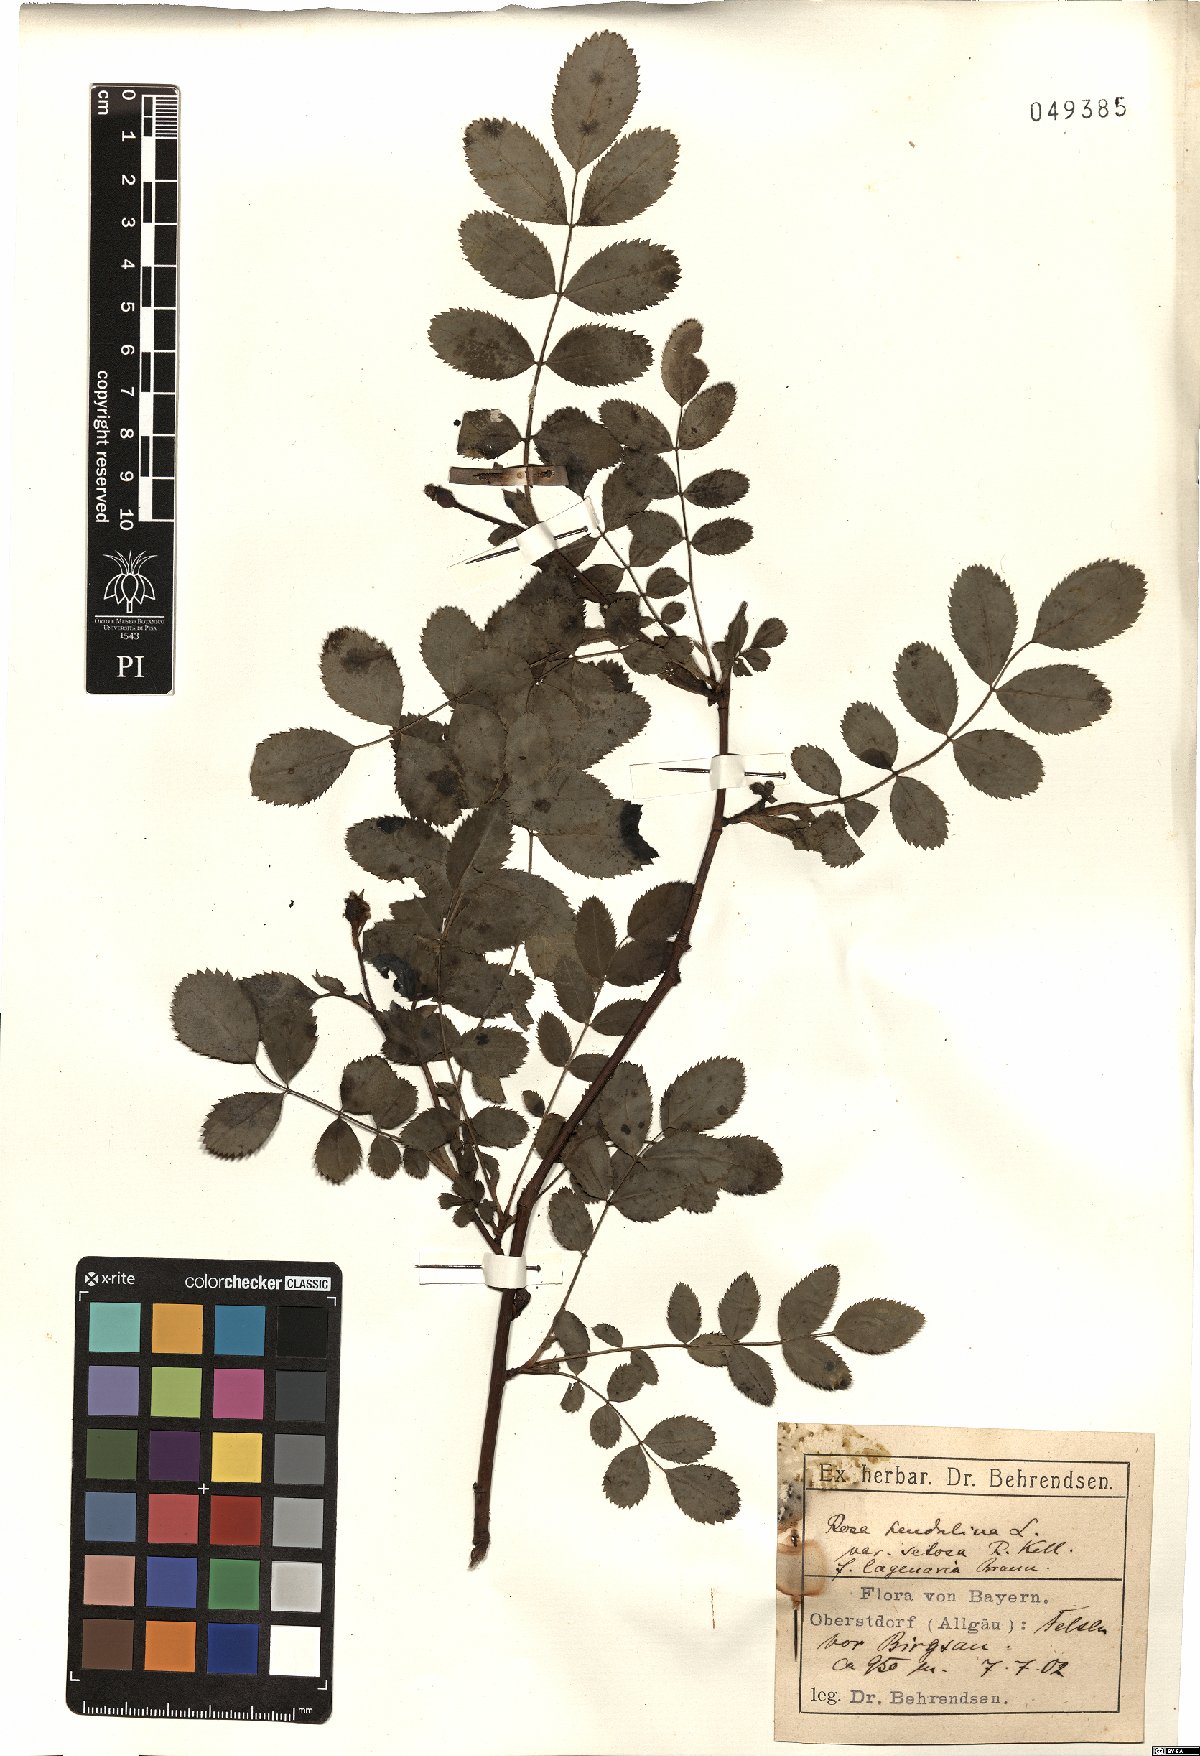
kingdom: Plantae
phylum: Tracheophyta
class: Magnoliopsida
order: Rosales
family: Rosaceae
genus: Rosa
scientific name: Rosa pendulina
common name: Alpine rose
